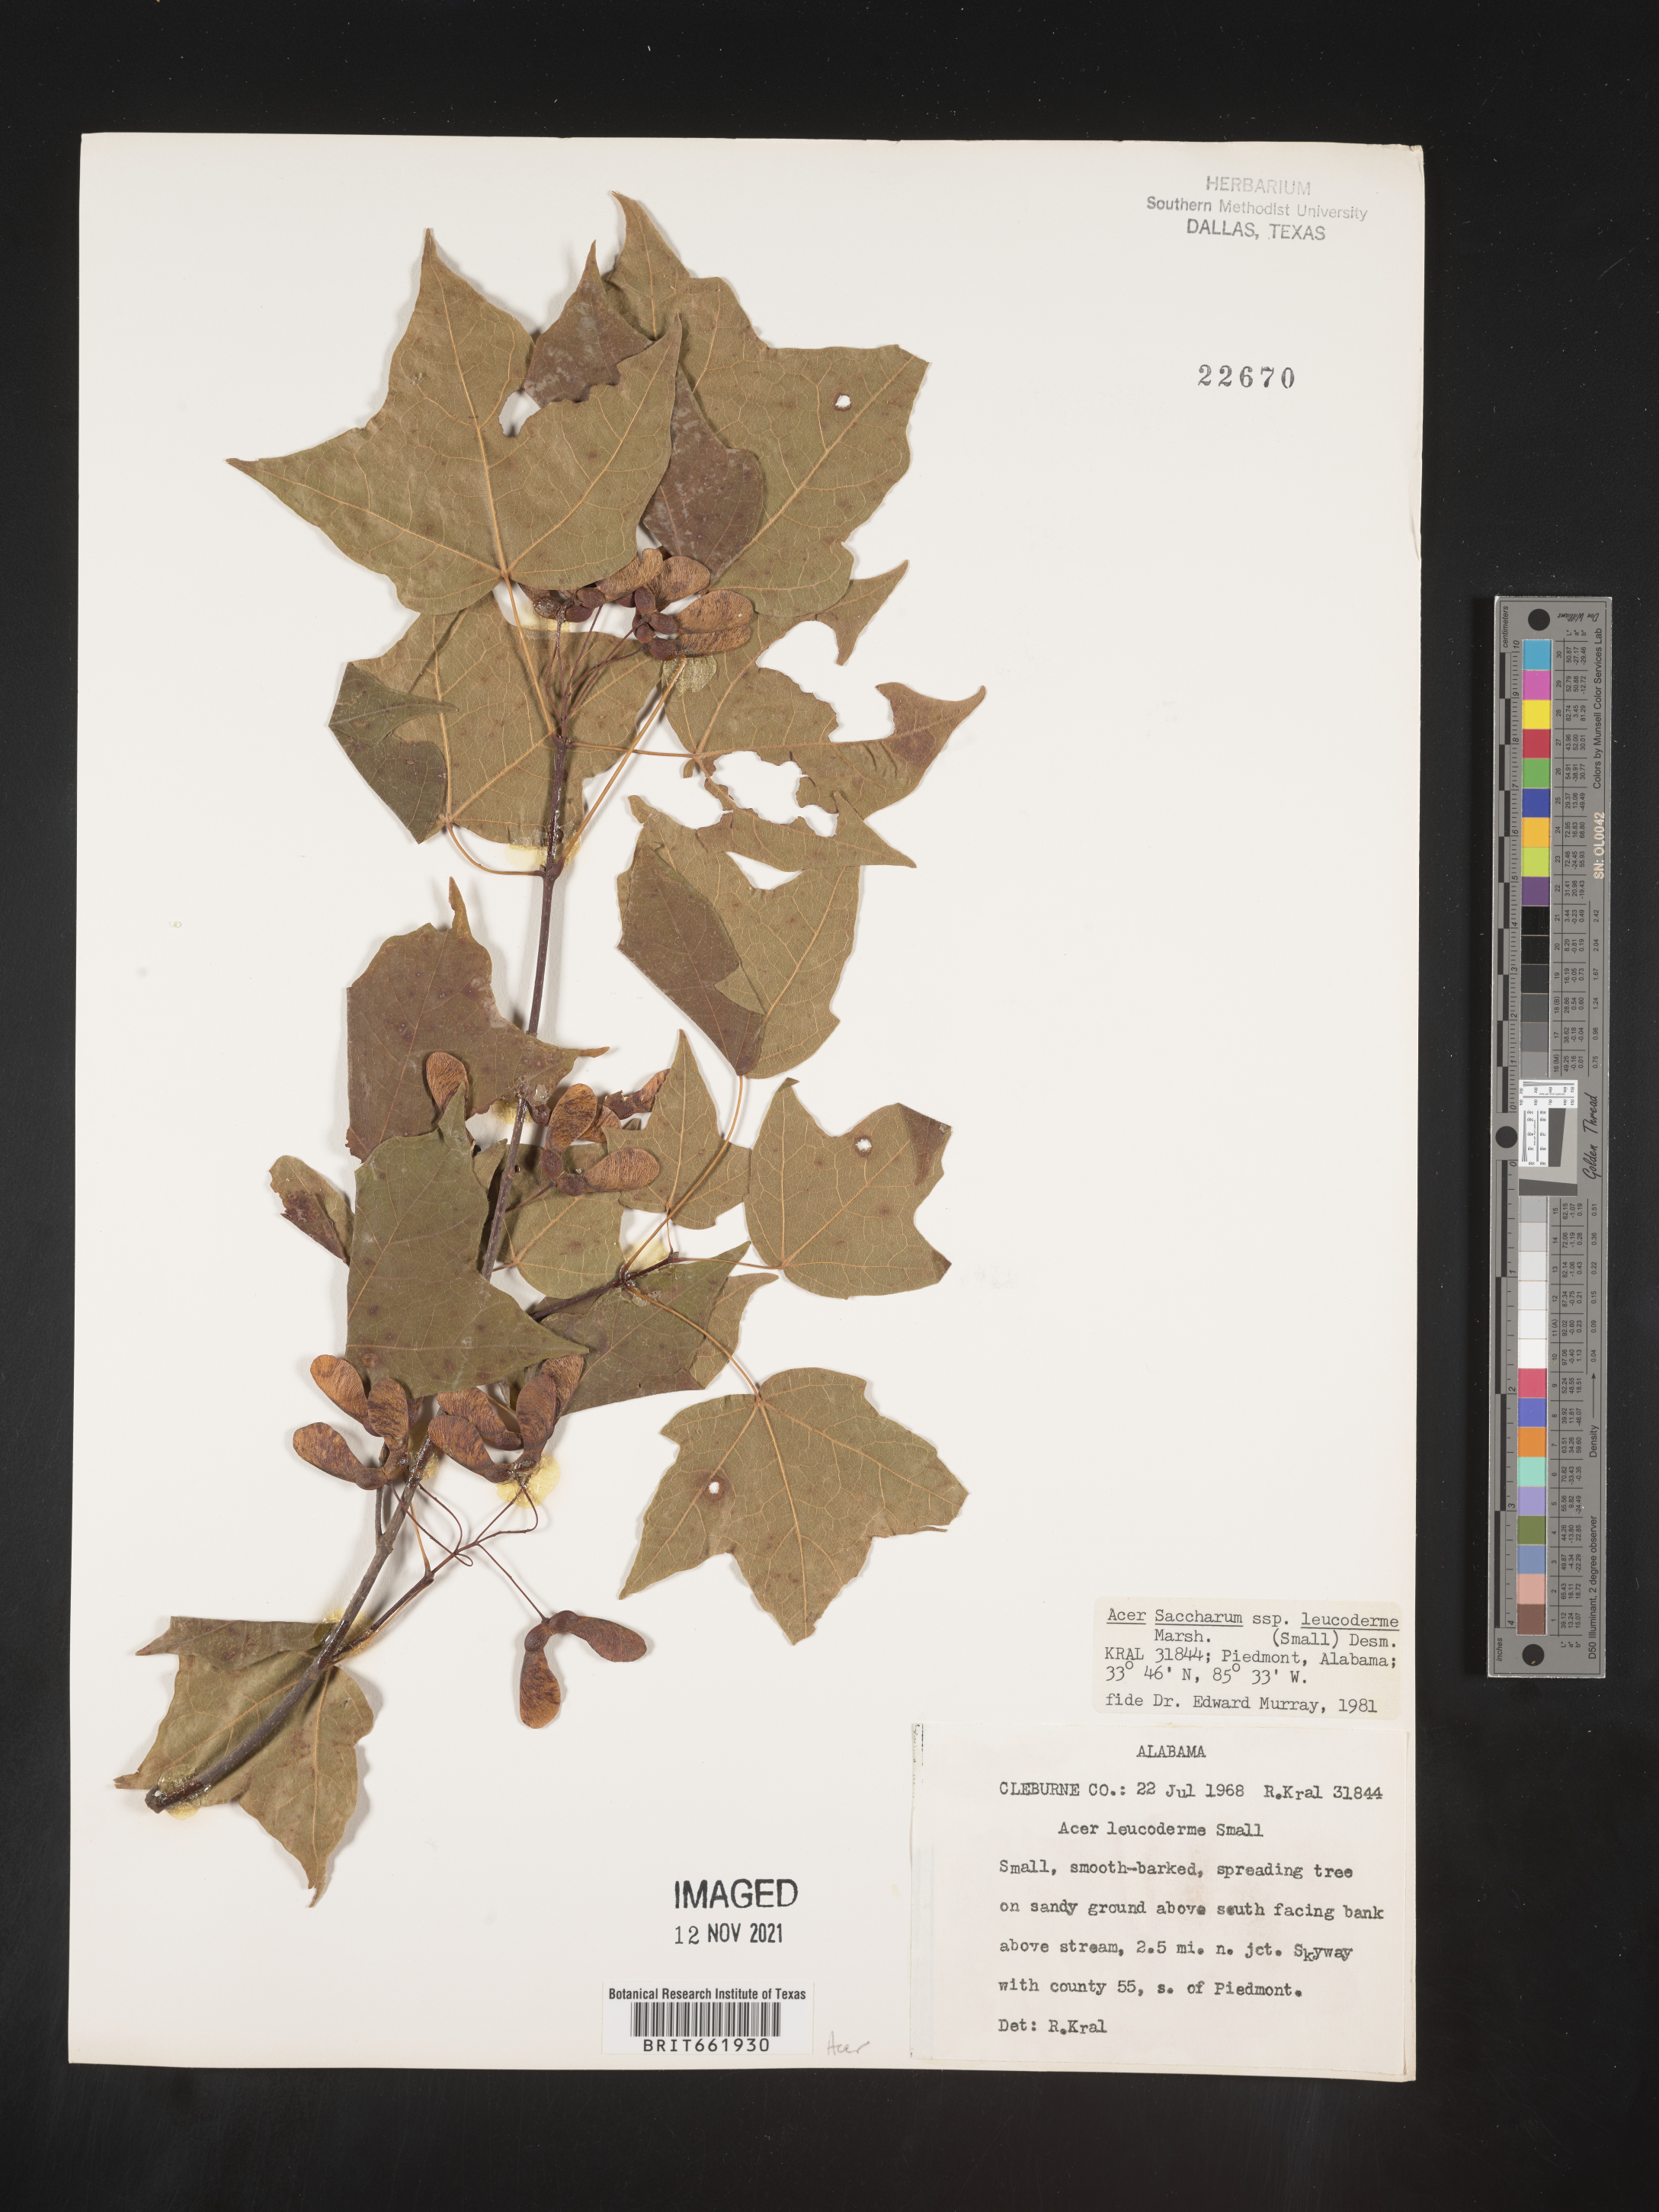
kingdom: Plantae
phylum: Tracheophyta
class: Magnoliopsida
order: Sapindales
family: Sapindaceae
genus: Acer
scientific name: Acer leucoderme
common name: Chalk maple
